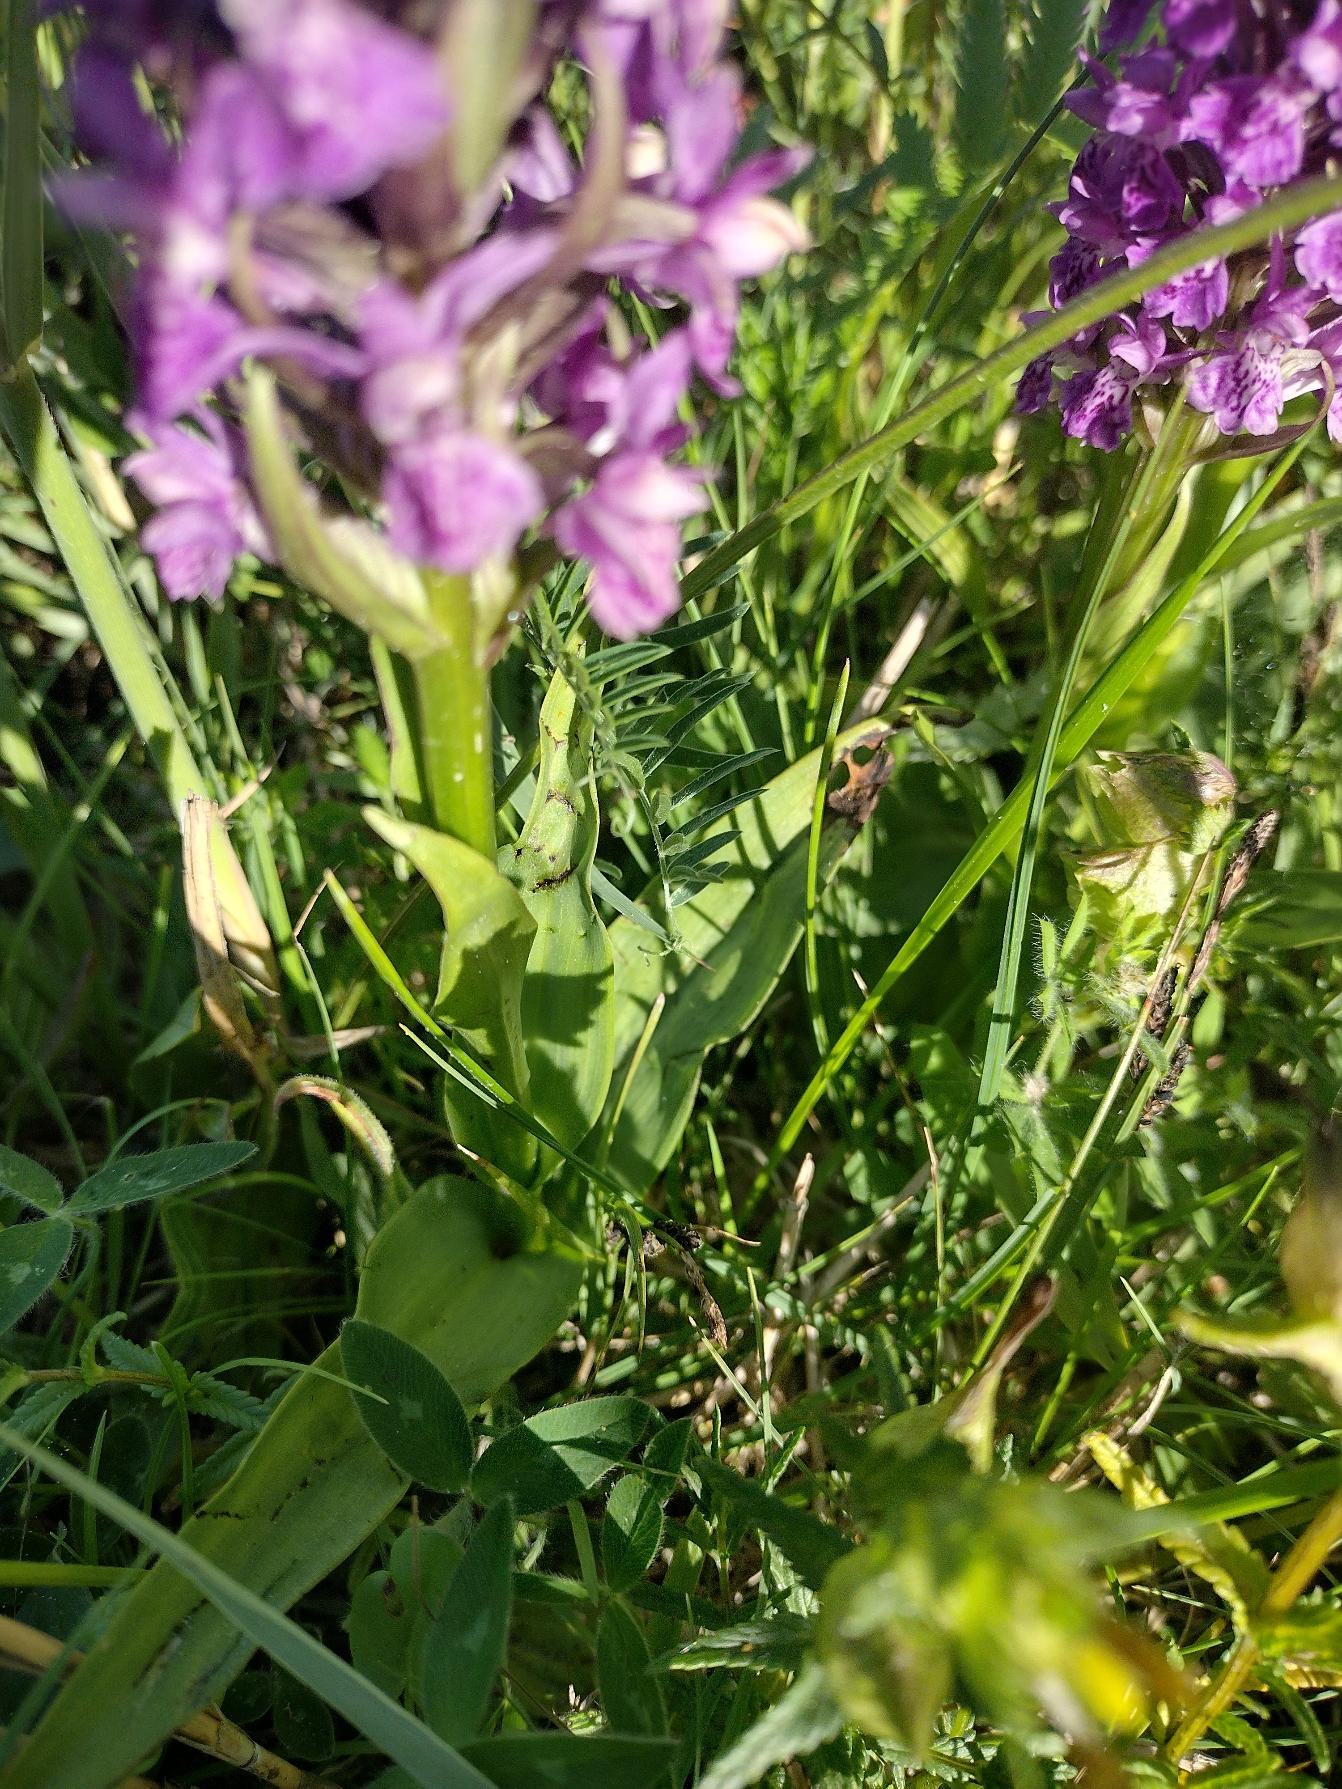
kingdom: Plantae
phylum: Tracheophyta
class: Liliopsida
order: Asparagales
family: Orchidaceae
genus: Dactylorhiza
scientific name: Dactylorhiza majalis
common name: Purpur-gøgeurt
